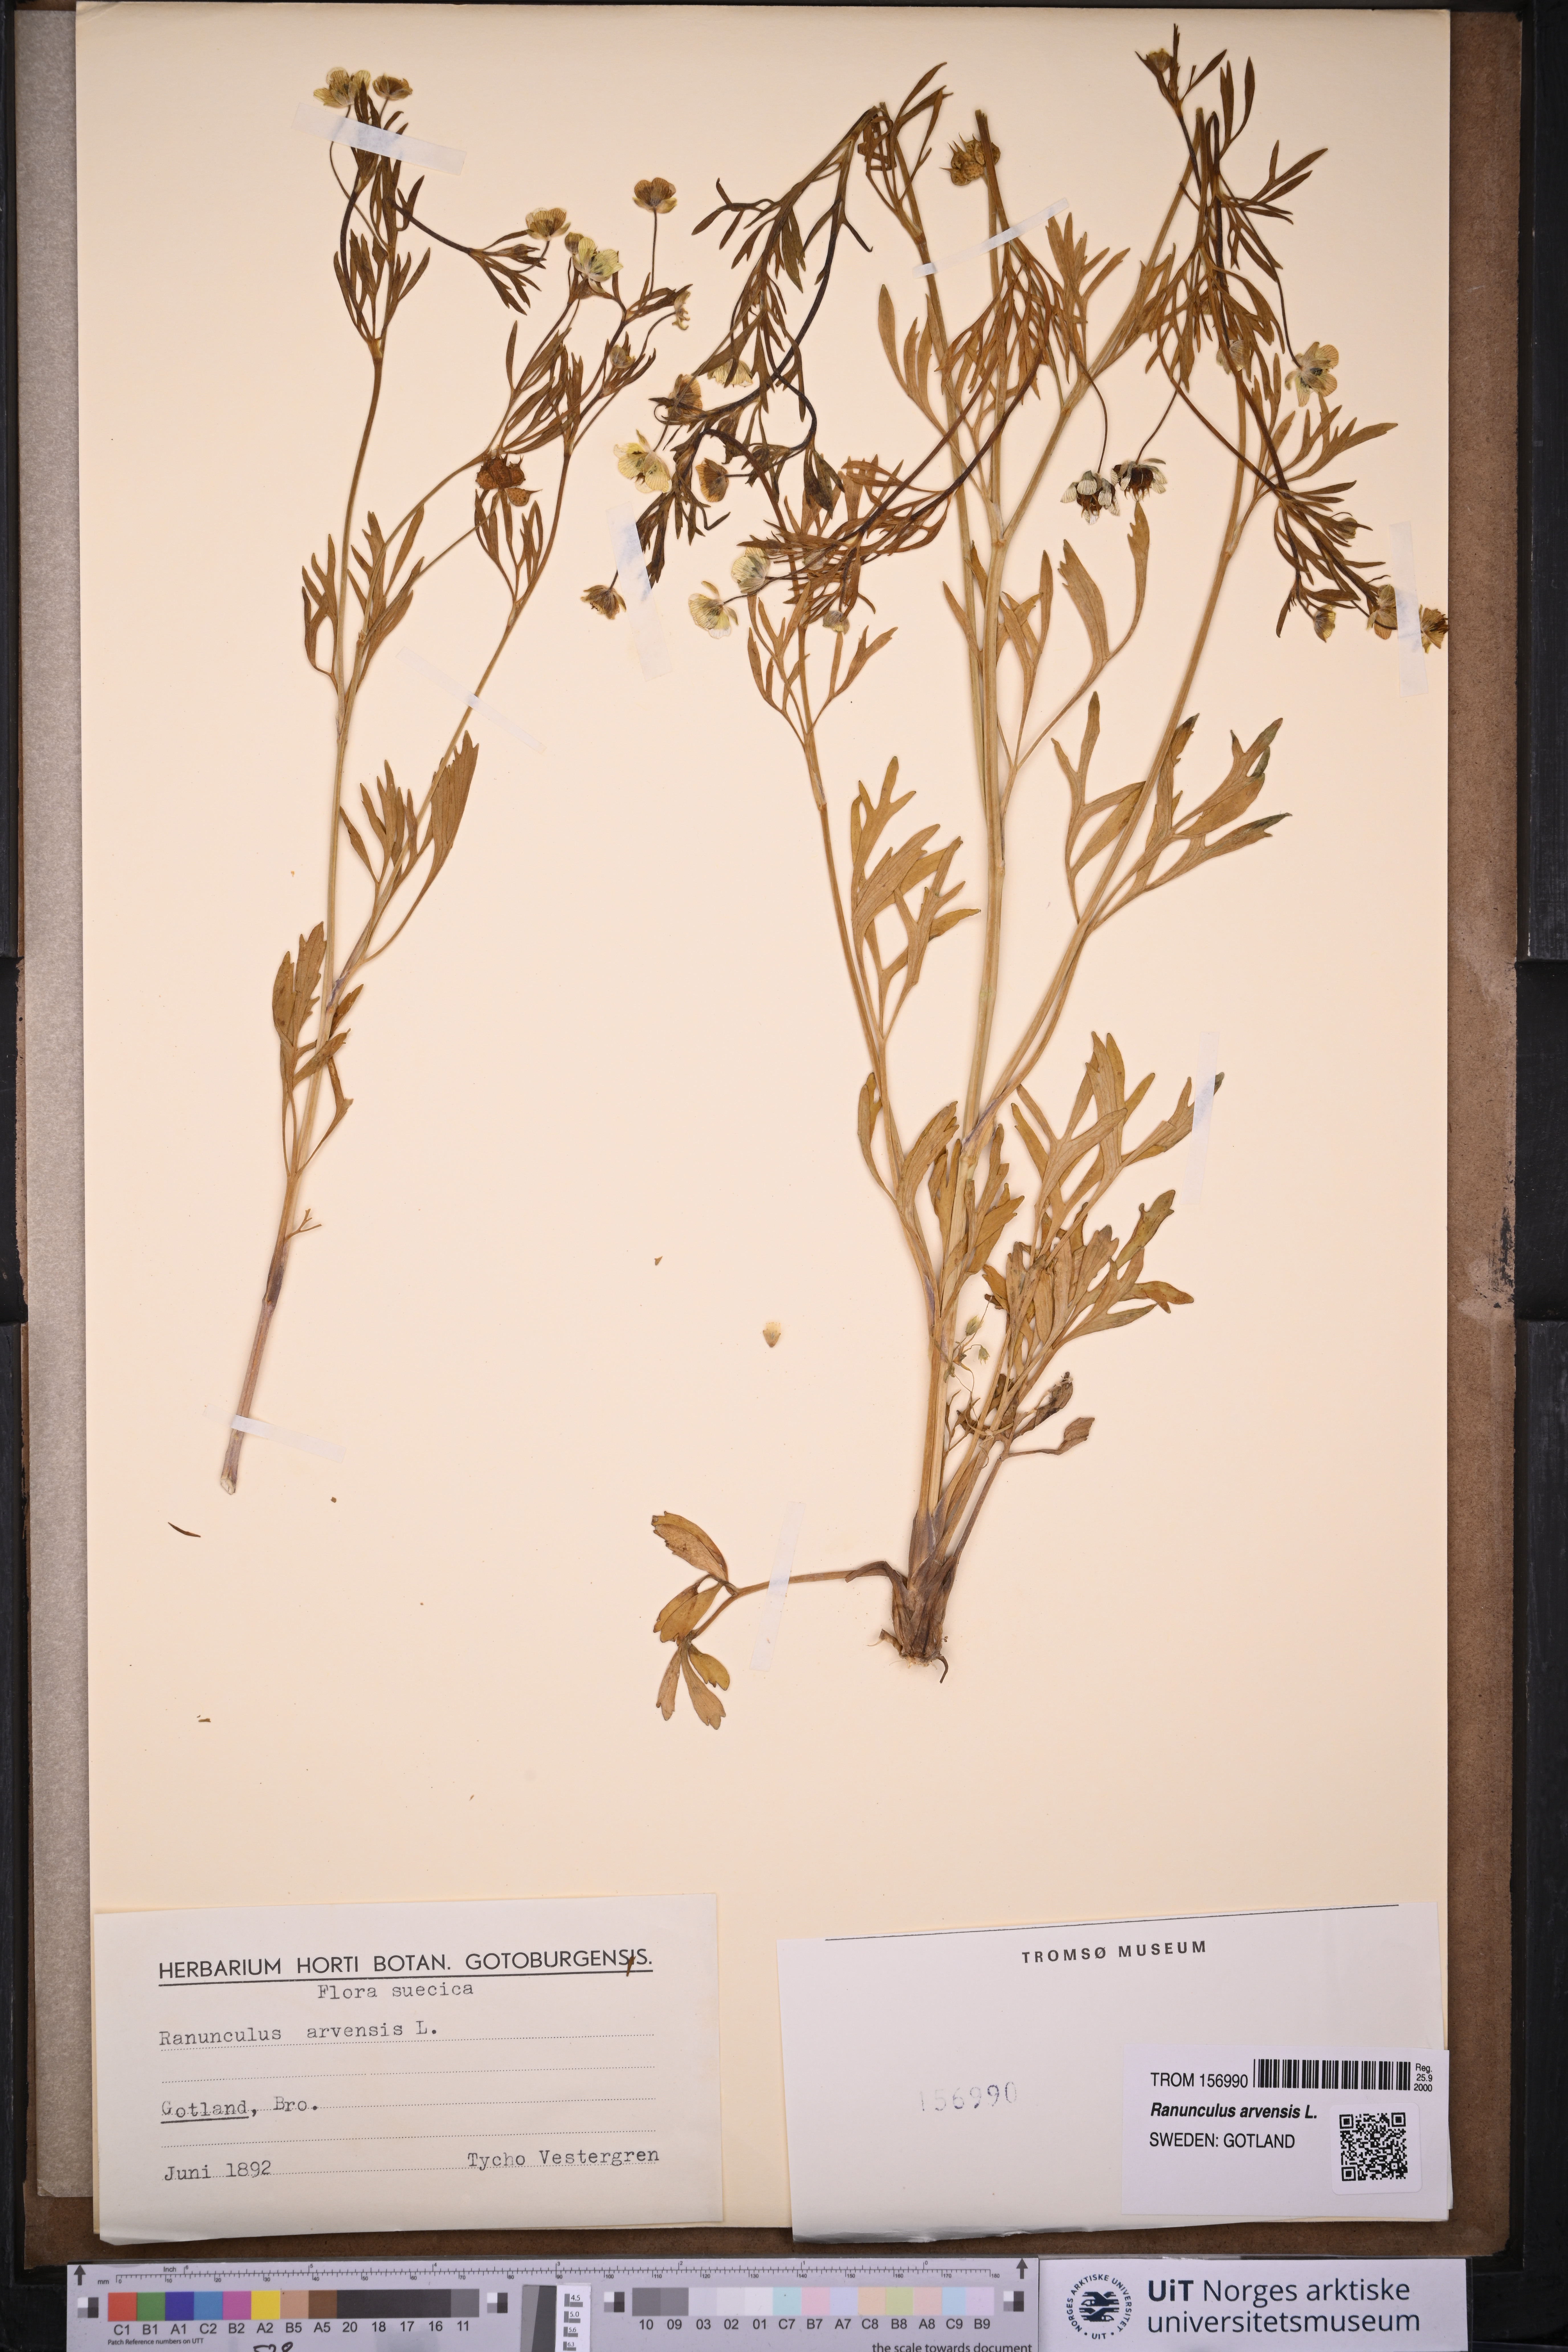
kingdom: Plantae
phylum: Tracheophyta
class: Magnoliopsida
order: Ranunculales
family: Ranunculaceae
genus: Ranunculus
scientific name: Ranunculus arvensis
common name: Corn buttercup
